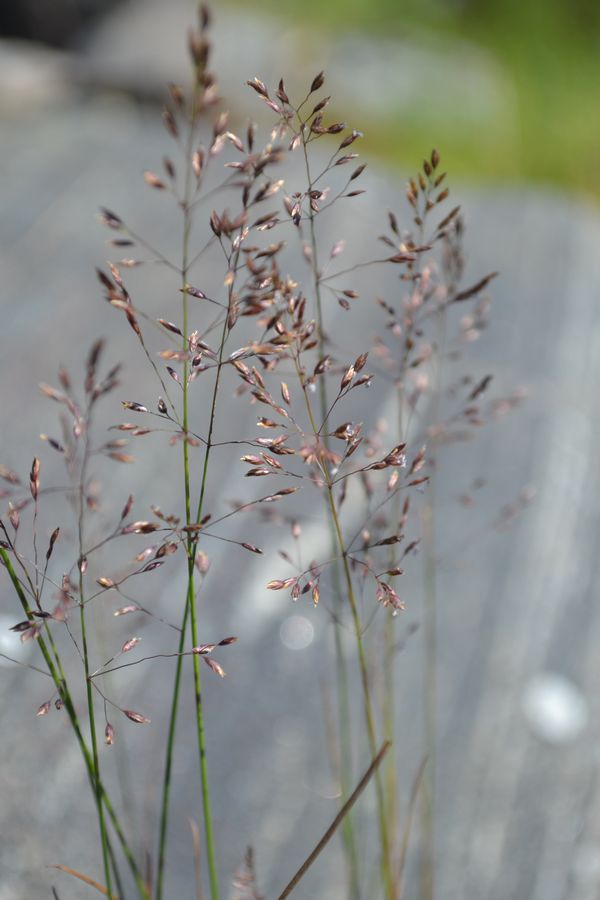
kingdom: Plantae
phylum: Tracheophyta
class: Liliopsida
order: Poales
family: Poaceae
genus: Avenella
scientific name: Avenella flexuosa
